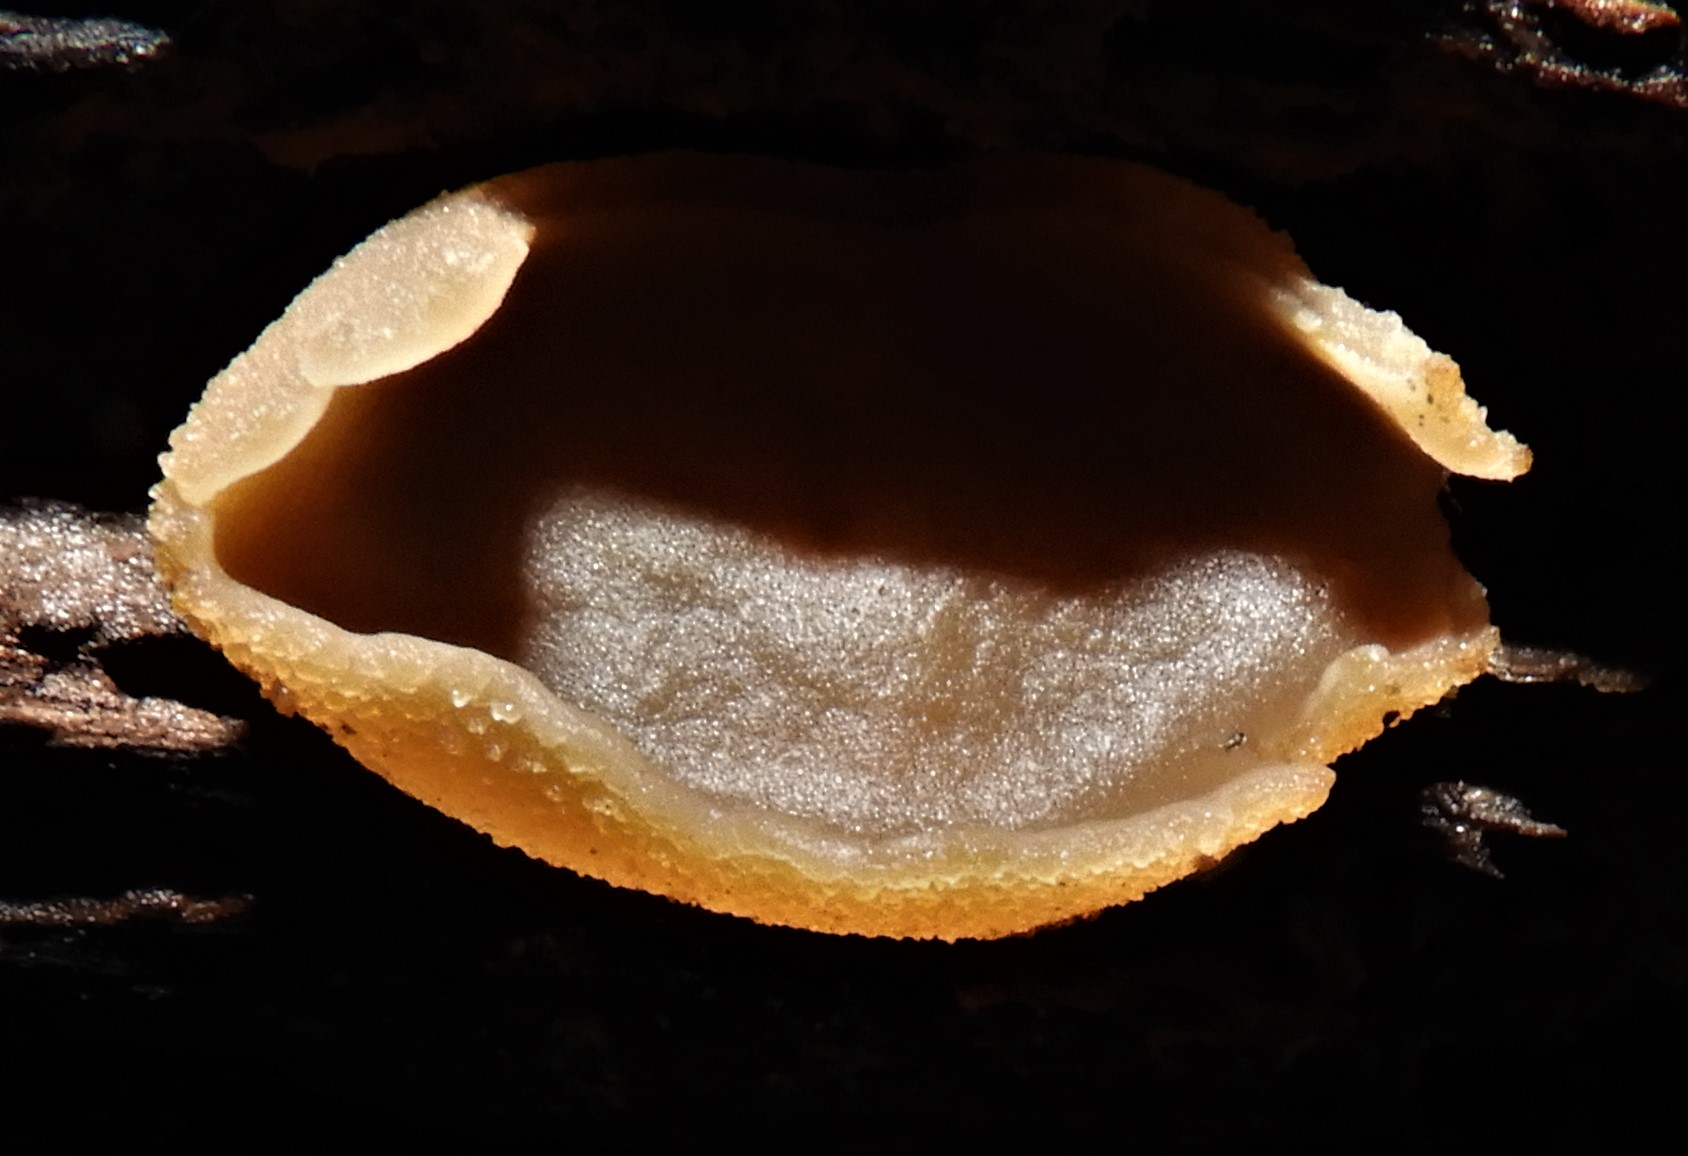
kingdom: Fungi
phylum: Ascomycota
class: Pezizomycetes
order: Pezizales
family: Pezizaceae
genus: Peziza
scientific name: Peziza varia
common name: Ved-bægersvamp
